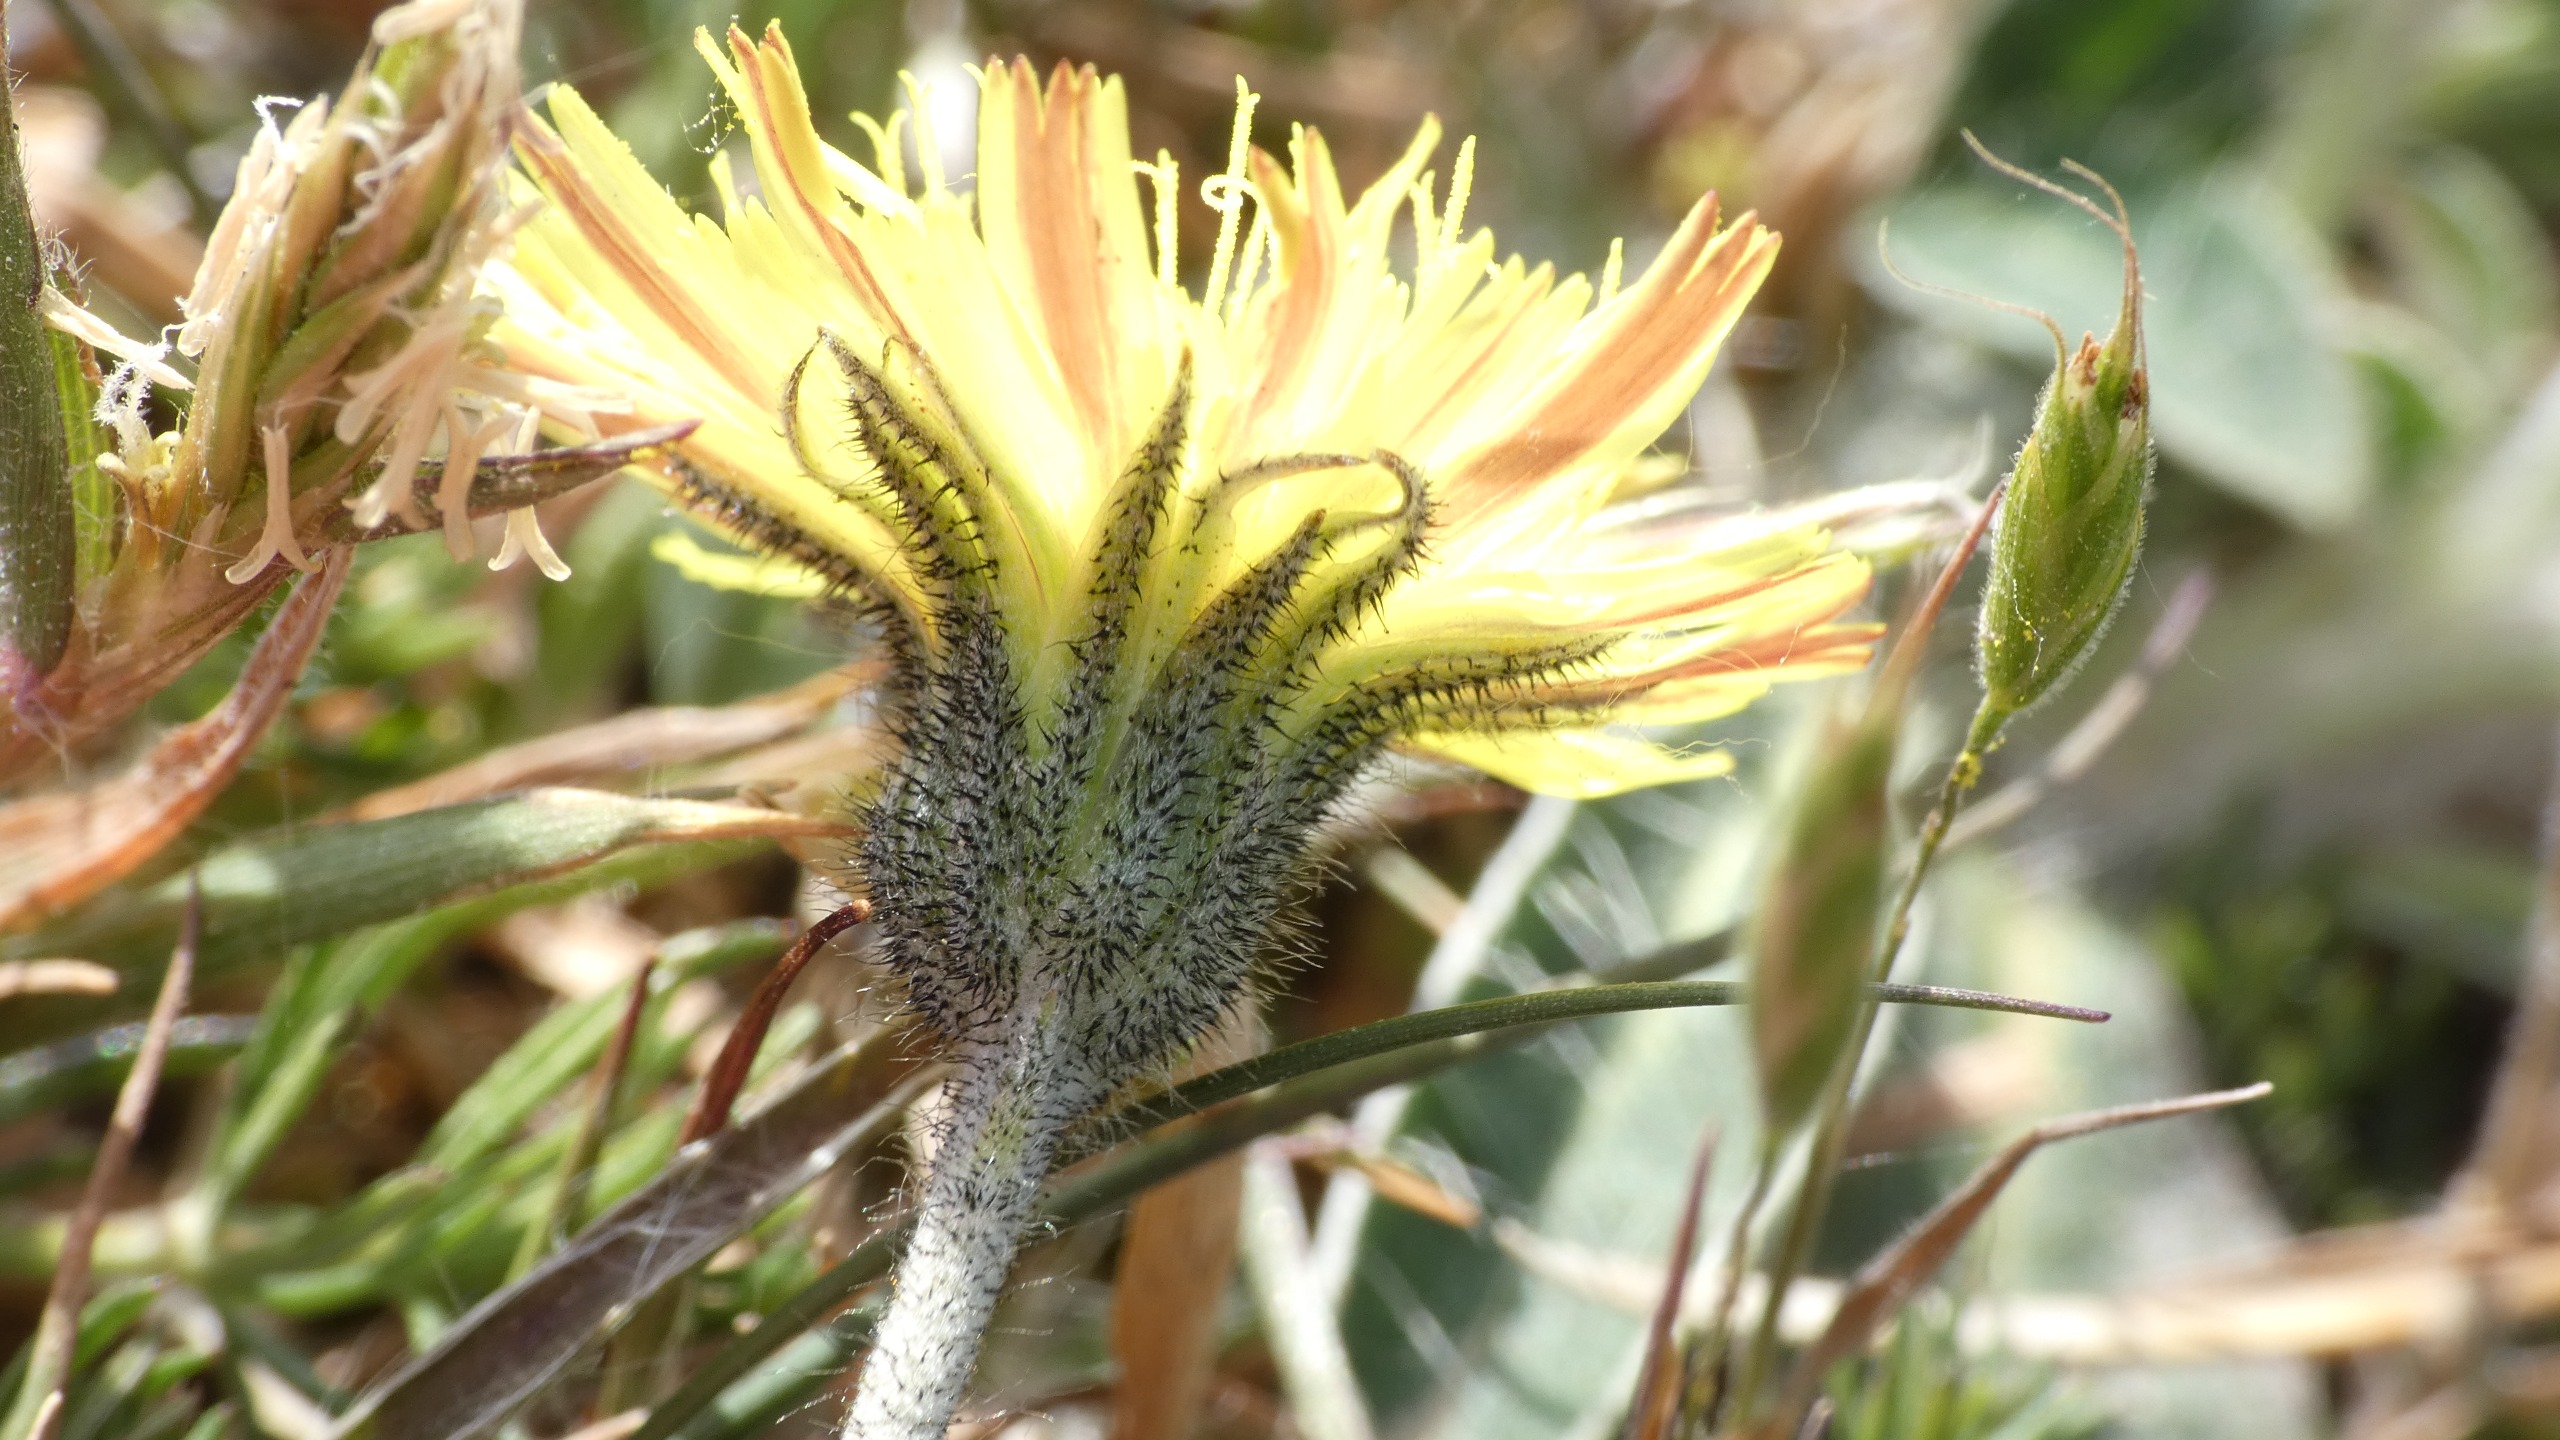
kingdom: Plantae
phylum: Tracheophyta
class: Magnoliopsida
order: Asterales
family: Asteraceae
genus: Pilosella
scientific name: Pilosella officinarum
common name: Håret høgeurt
